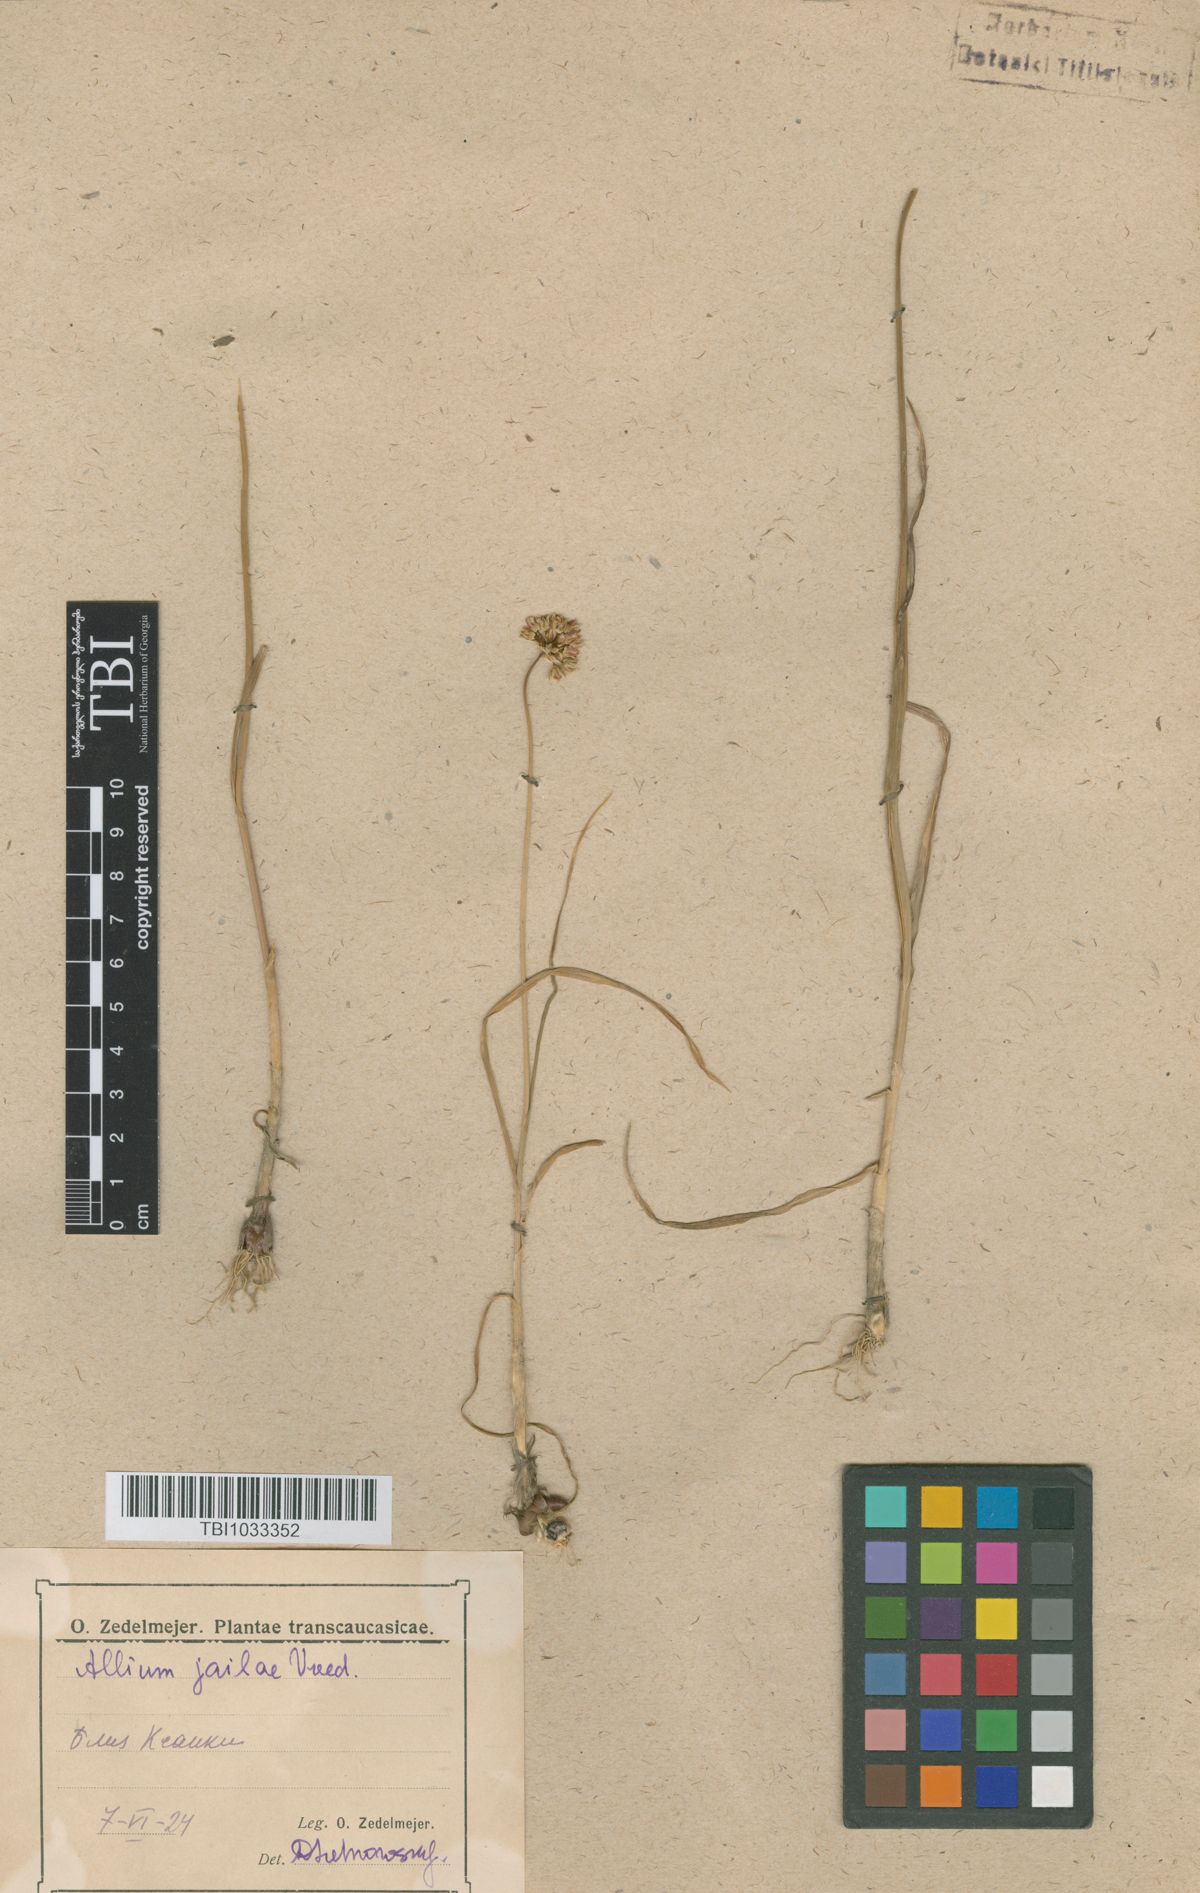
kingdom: Plantae
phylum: Tracheophyta
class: Liliopsida
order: Asparagales
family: Amaryllidaceae
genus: Allium
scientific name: Allium rotundum
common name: Sand leek
